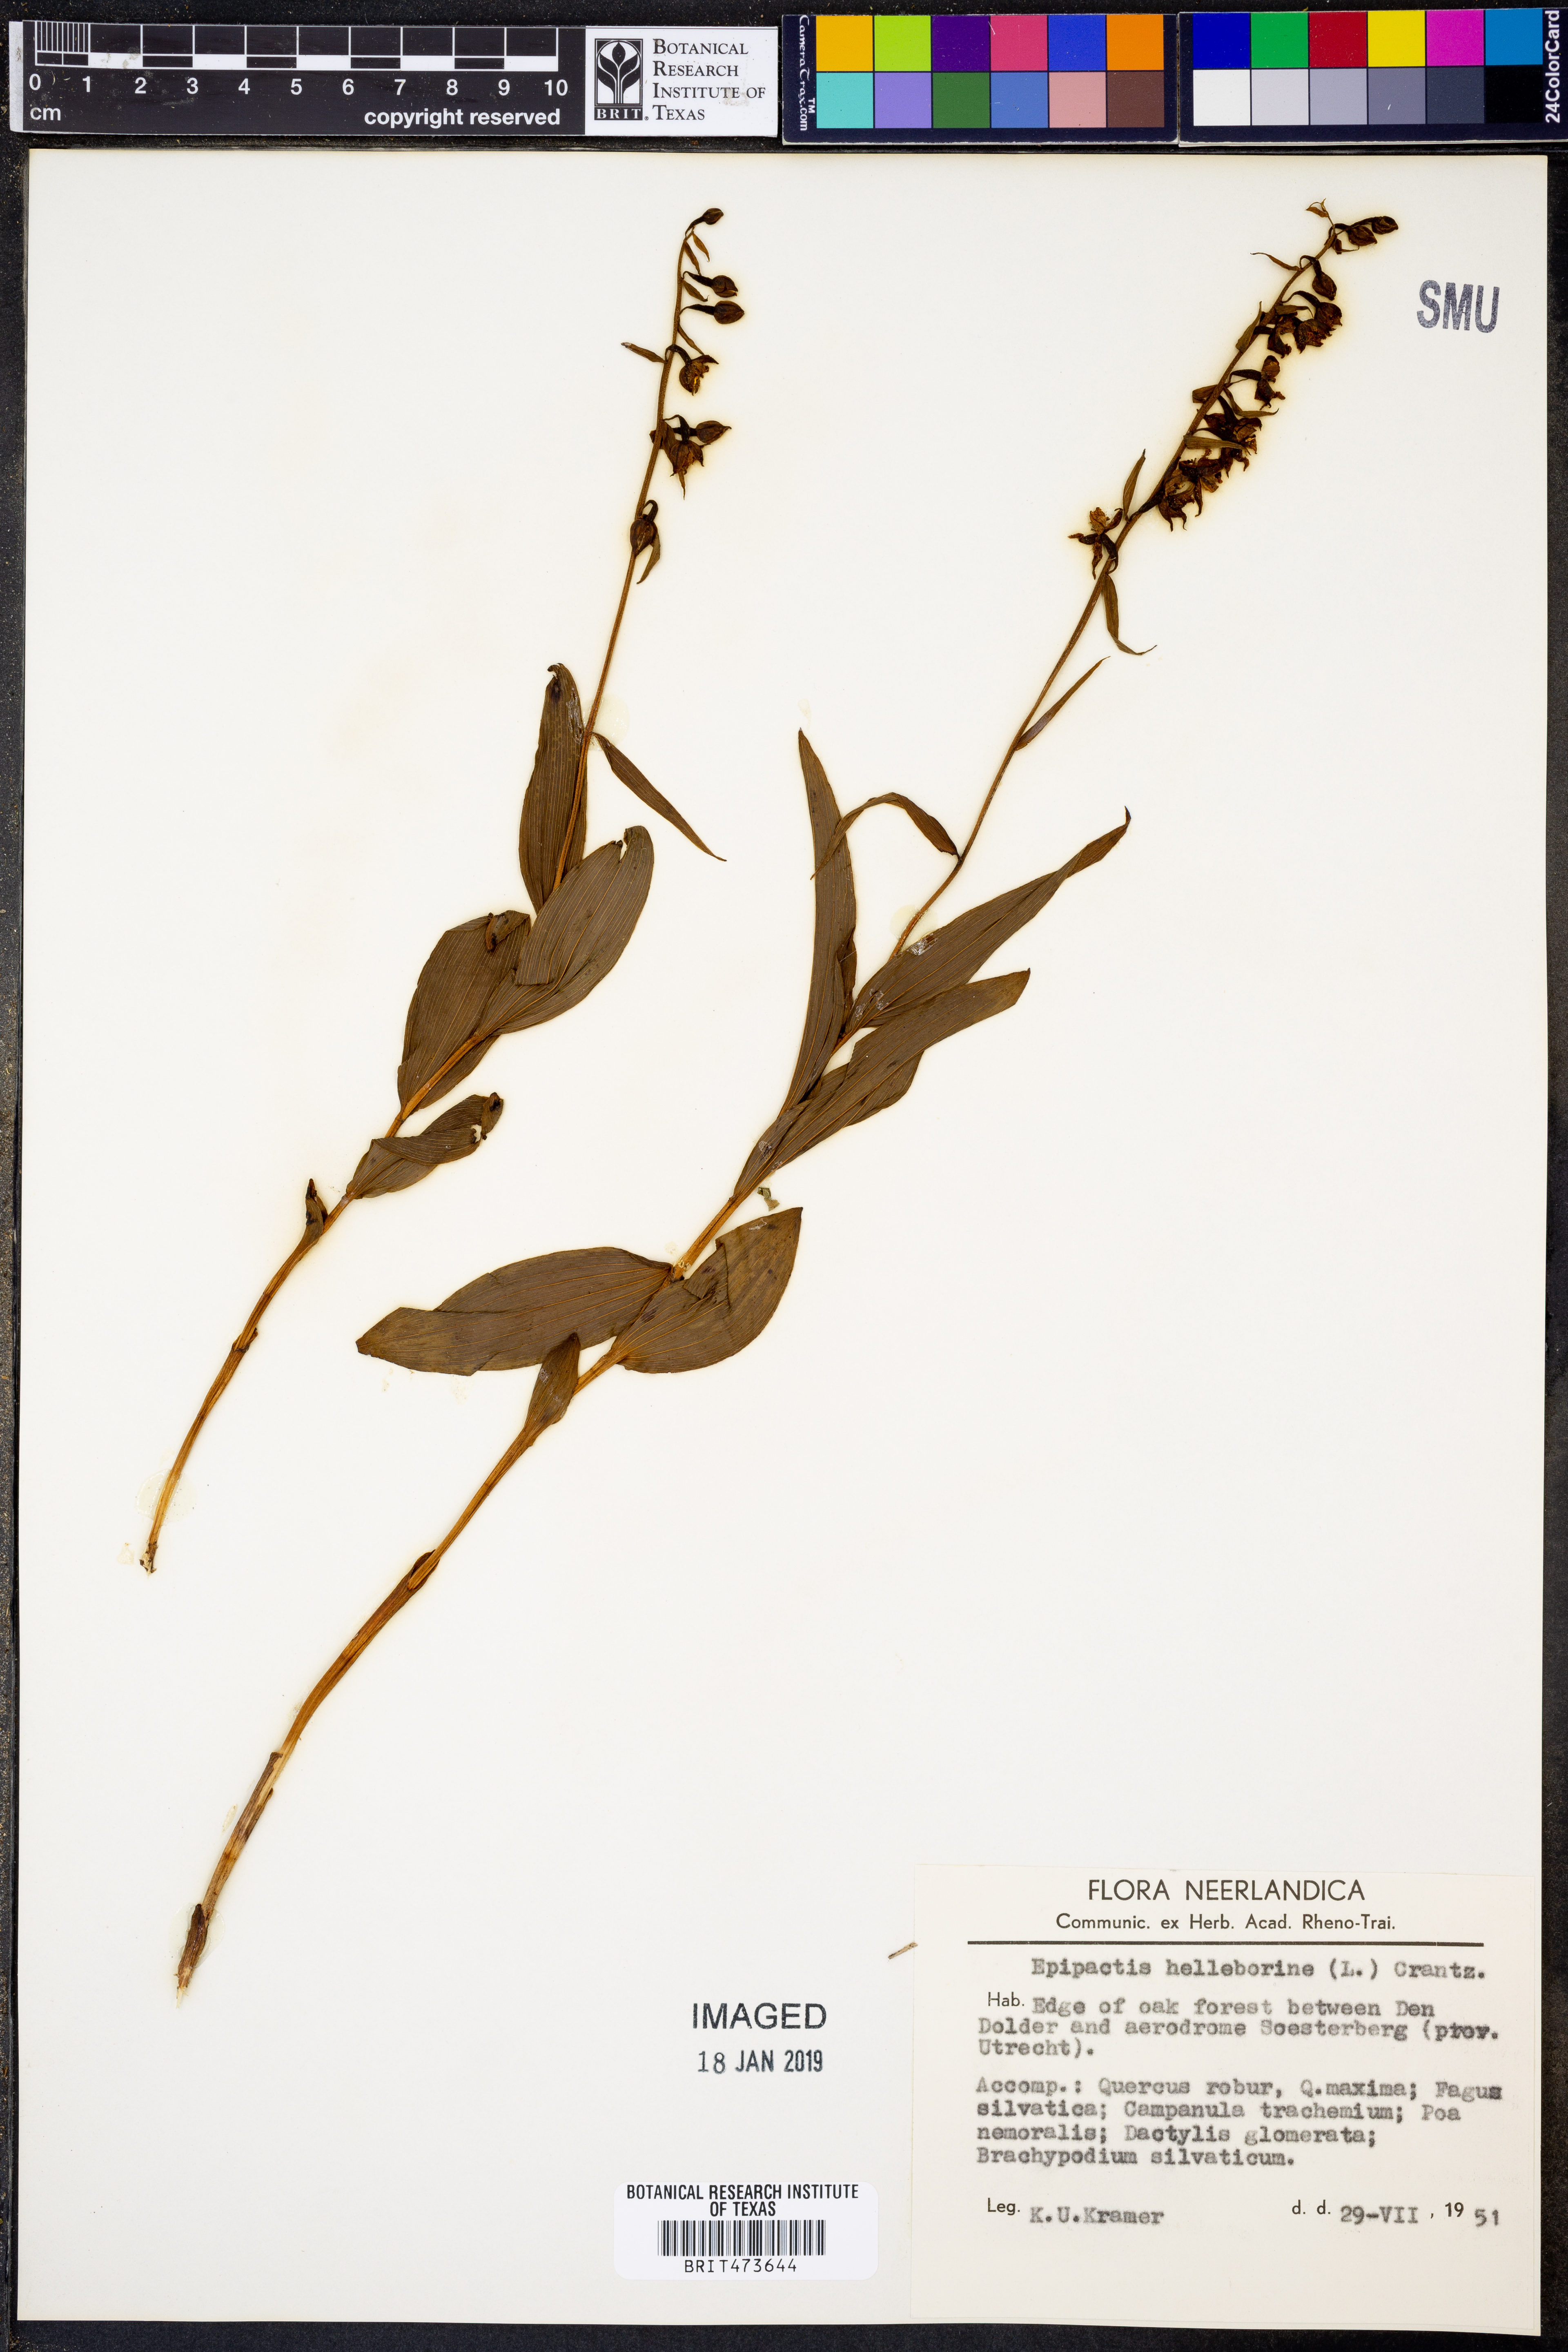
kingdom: Plantae
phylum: Tracheophyta
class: Liliopsida
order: Asparagales
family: Orchidaceae
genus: Epipactis
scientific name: Epipactis helleborine
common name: Broad-leaved helleborine
